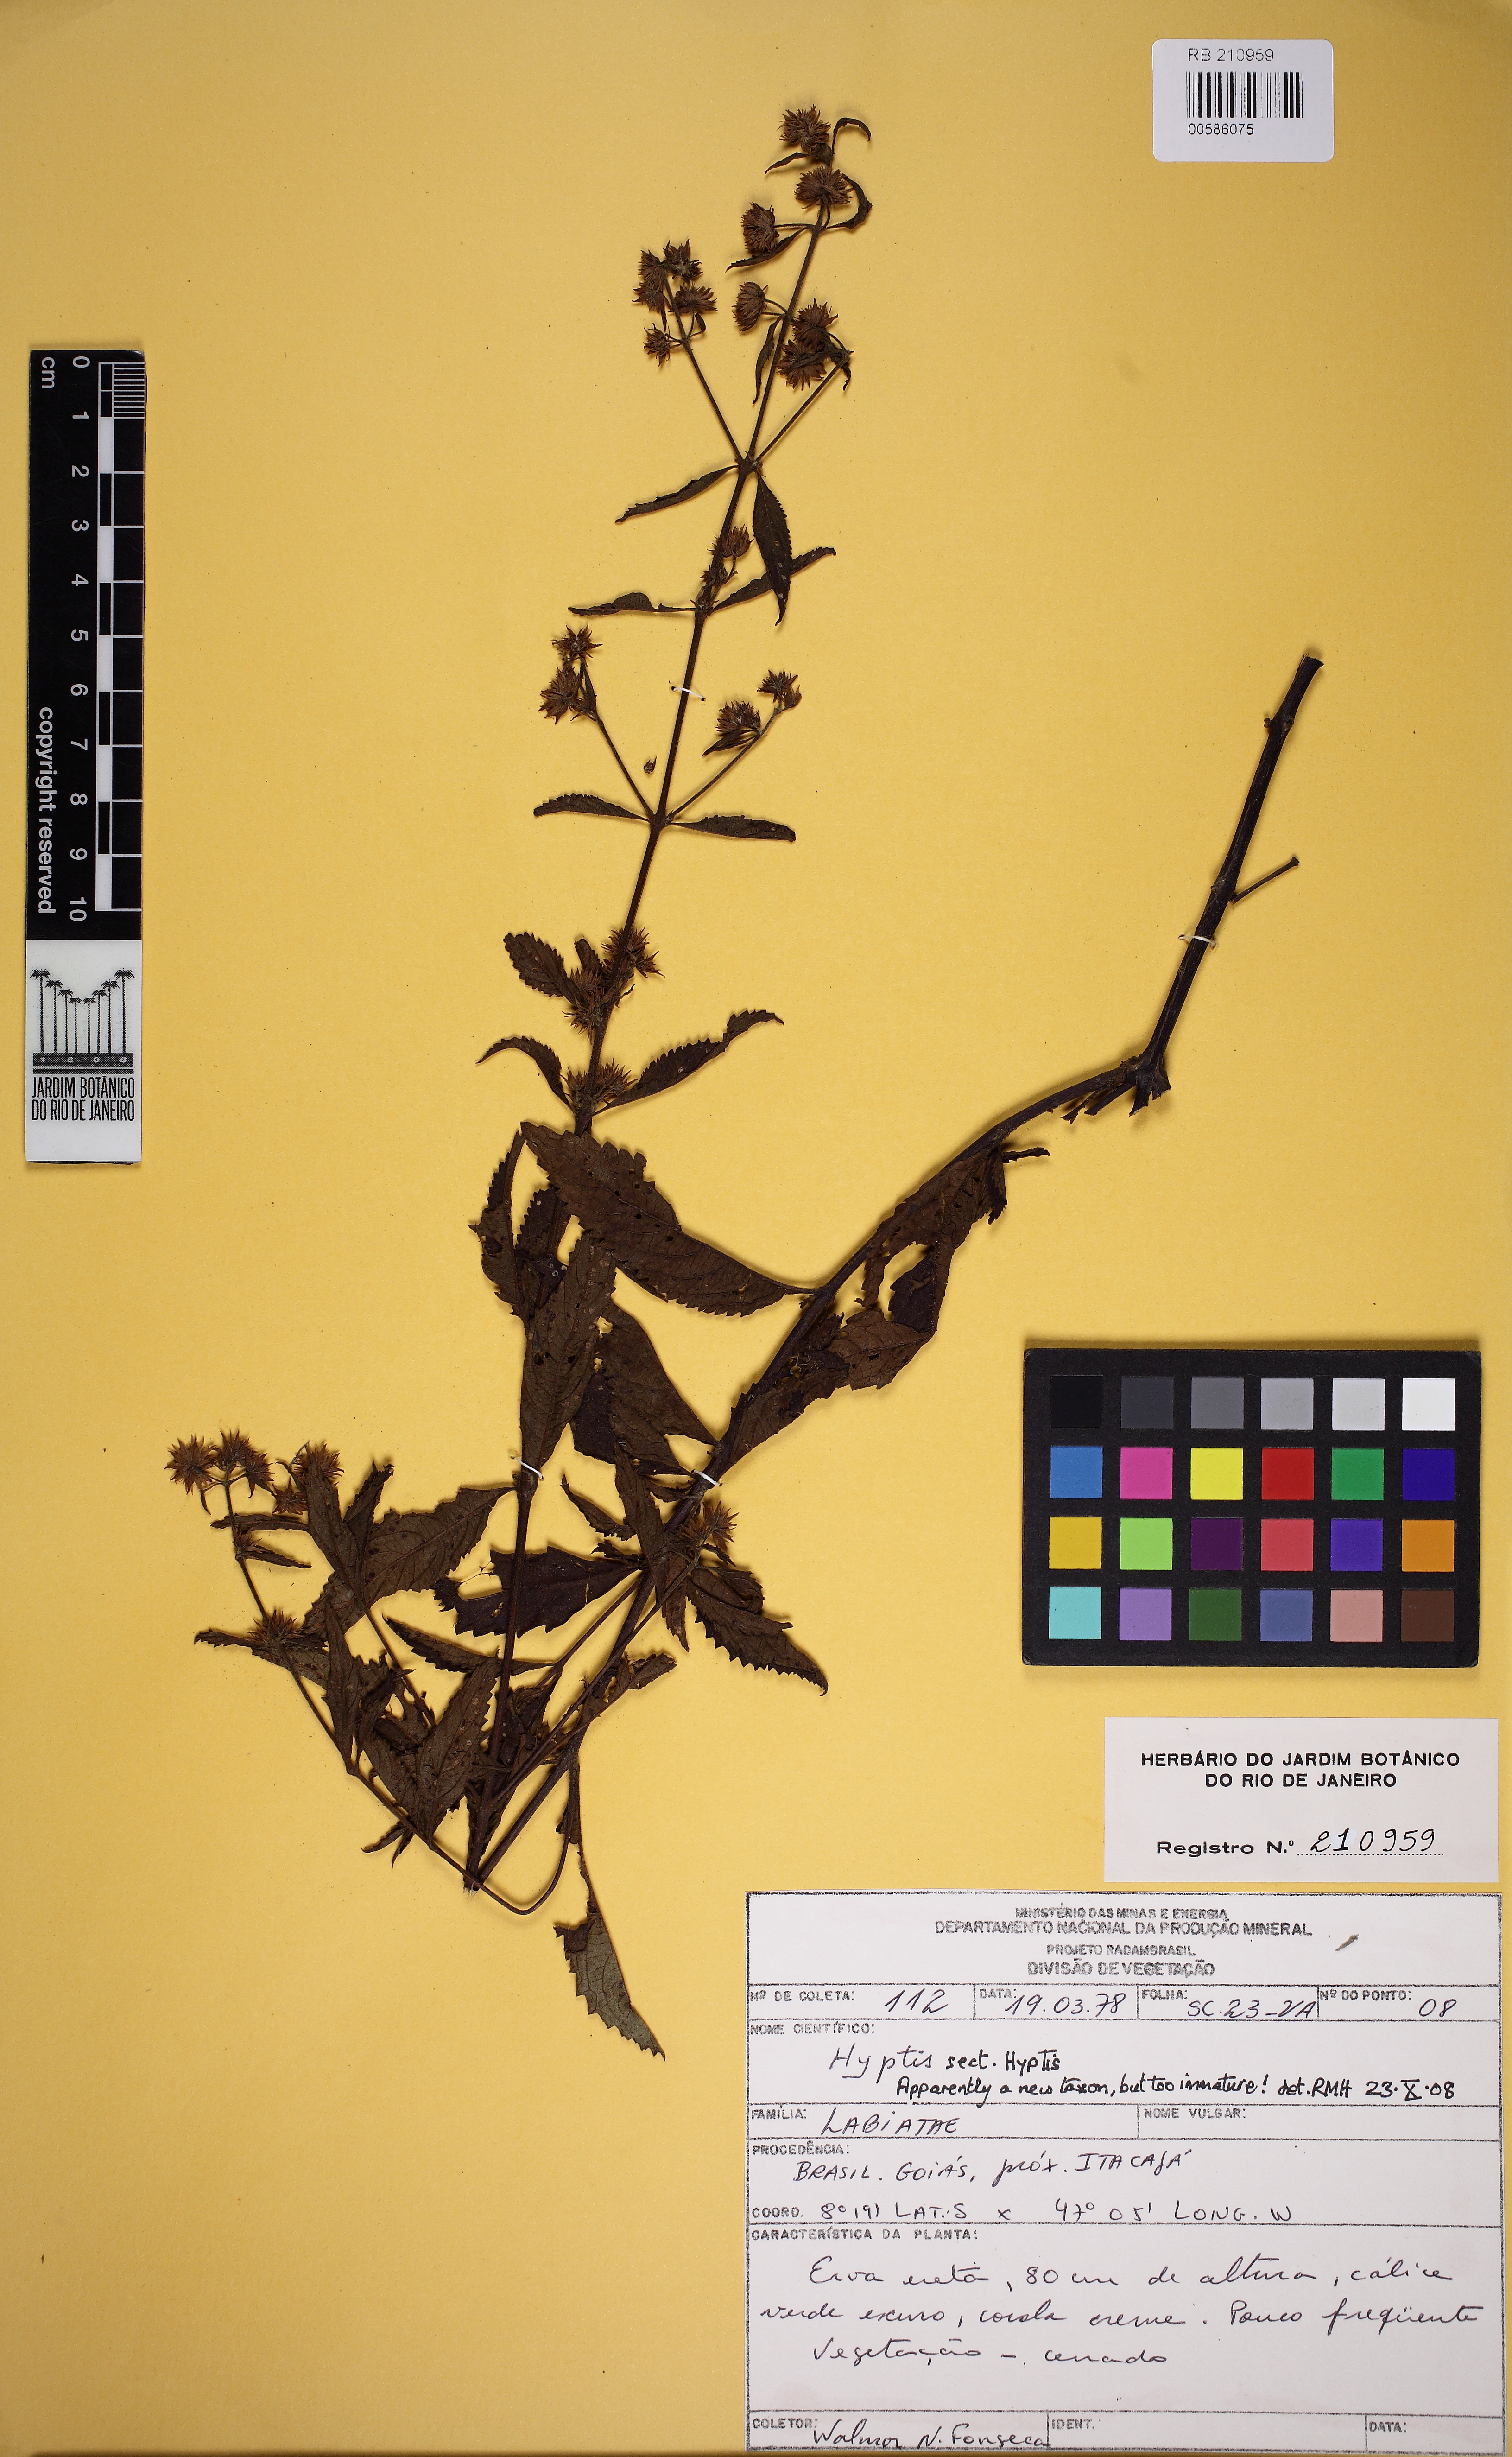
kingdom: Plantae
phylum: Tracheophyta
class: Magnoliopsida
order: Lamiales
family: Lamiaceae
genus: Hyptis
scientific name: Hyptis
